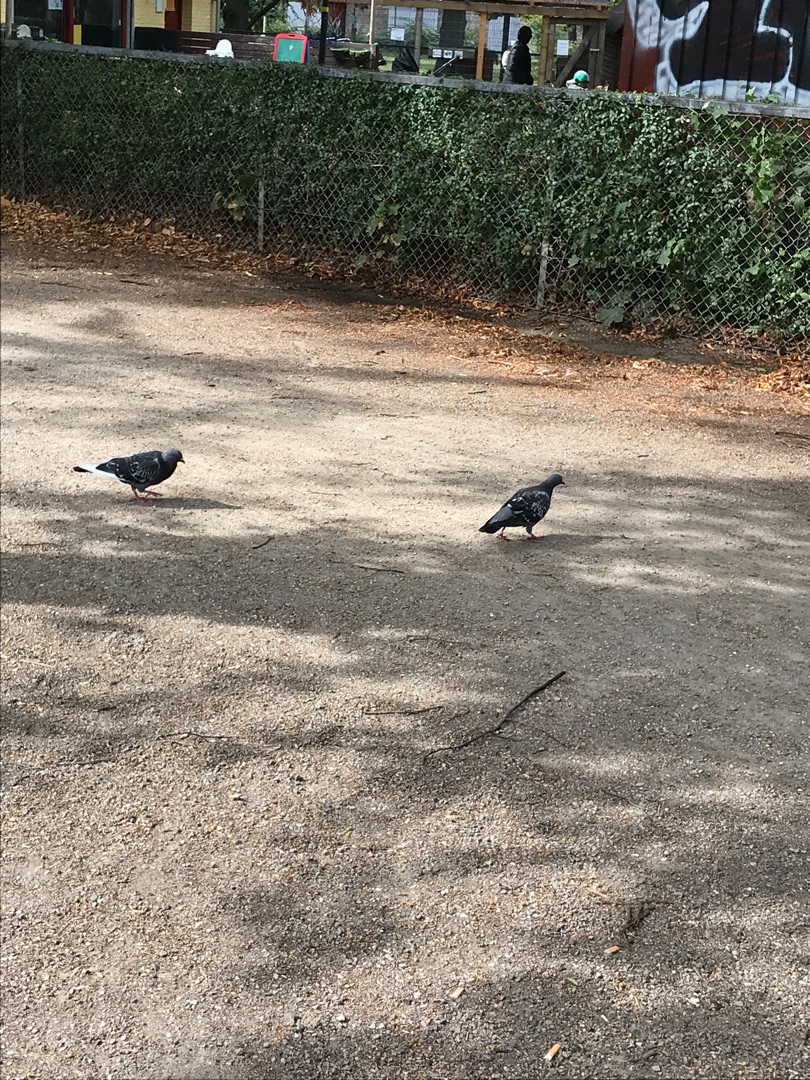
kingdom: Animalia
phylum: Chordata
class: Aves
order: Columbiformes
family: Columbidae
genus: Columba
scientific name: Columba livia
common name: Tamdue
